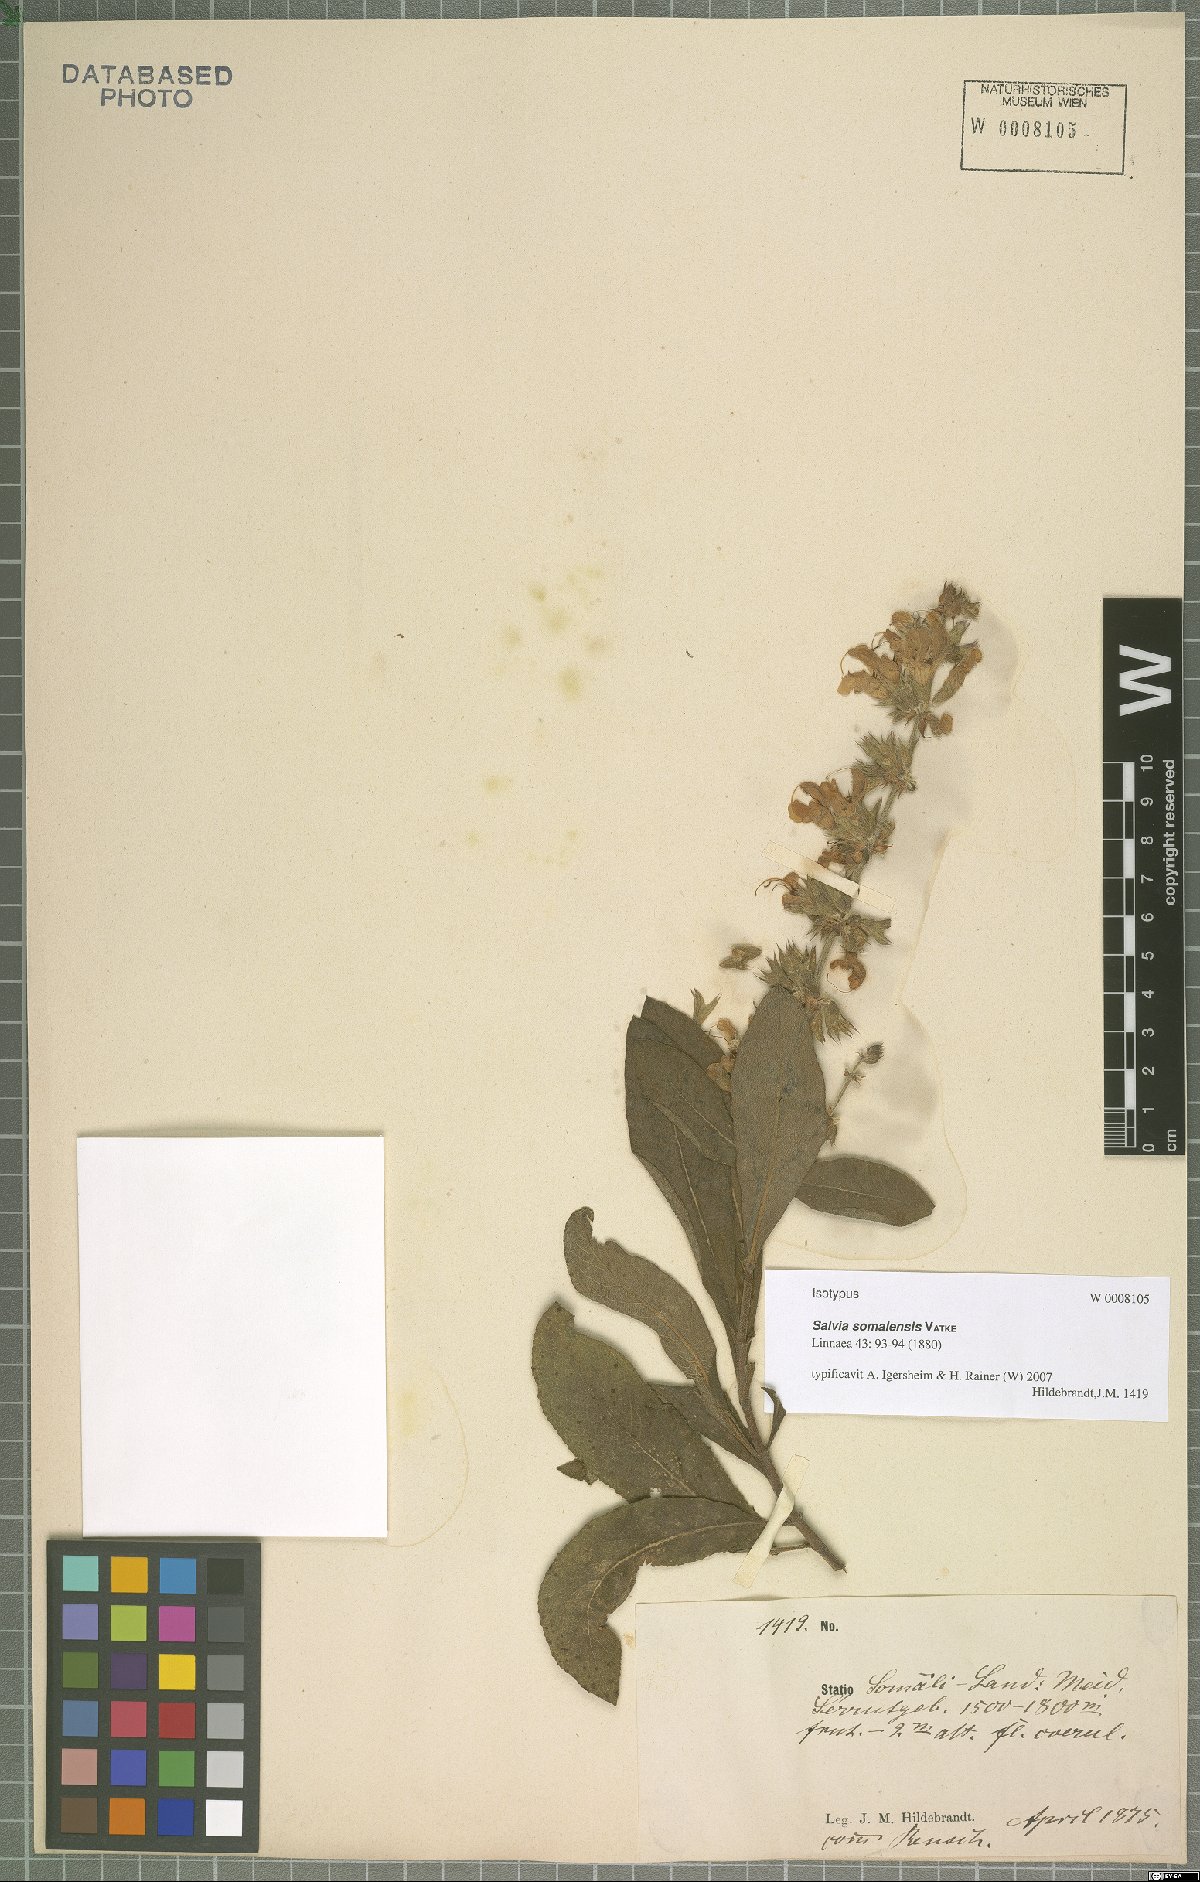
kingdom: Plantae
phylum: Tracheophyta
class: Magnoliopsida
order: Lamiales
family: Lamiaceae
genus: Salvia
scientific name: Salvia somalensis
